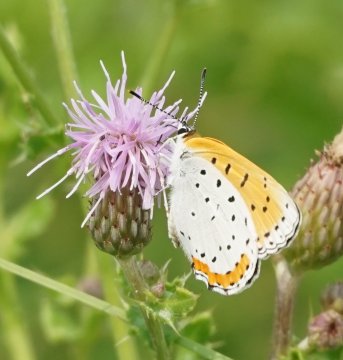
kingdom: Animalia
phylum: Arthropoda
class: Insecta
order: Lepidoptera
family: Sesiidae
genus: Sesia
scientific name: Sesia Lycaena hyllus
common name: Bronze Copper
